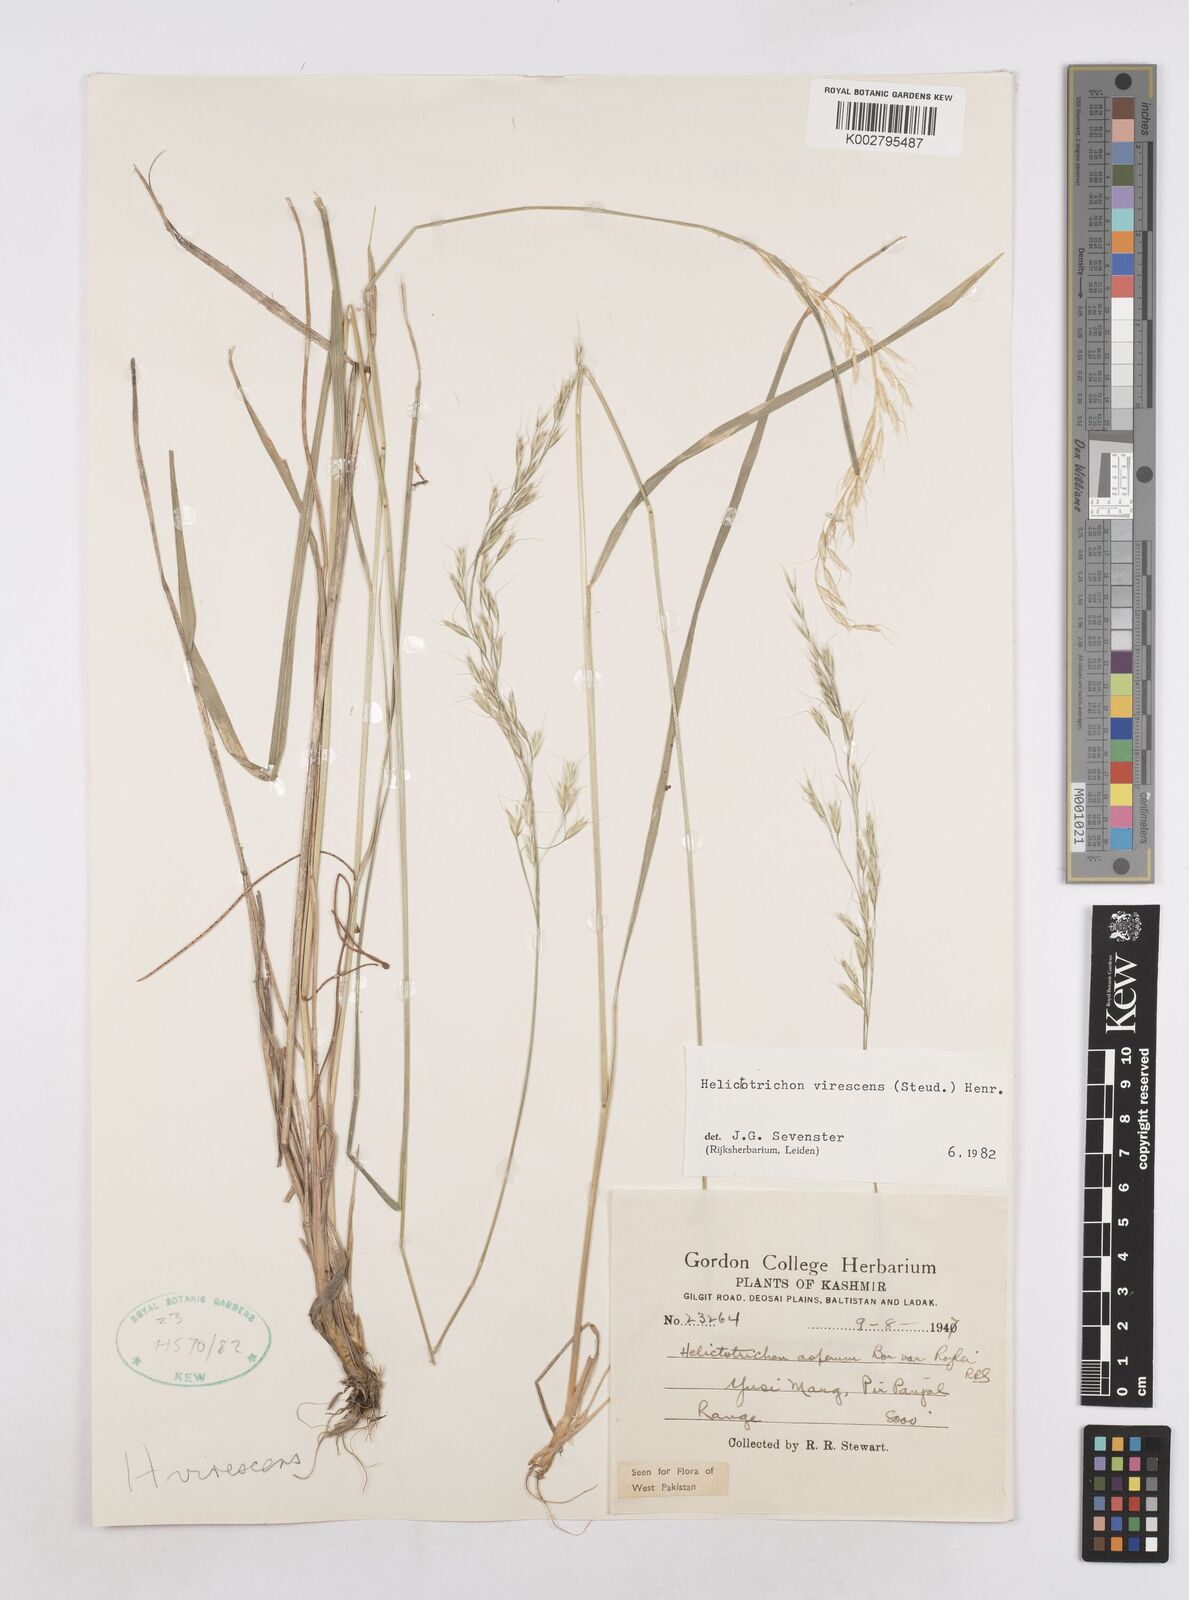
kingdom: Plantae
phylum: Tracheophyta
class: Liliopsida
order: Poales
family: Poaceae
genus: Trisetopsis
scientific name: Trisetopsis junghuhnii
